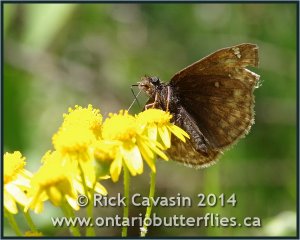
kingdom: Animalia
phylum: Arthropoda
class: Insecta
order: Lepidoptera
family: Hesperiidae
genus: Gesta
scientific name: Gesta
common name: Juvenal's Duskywing
